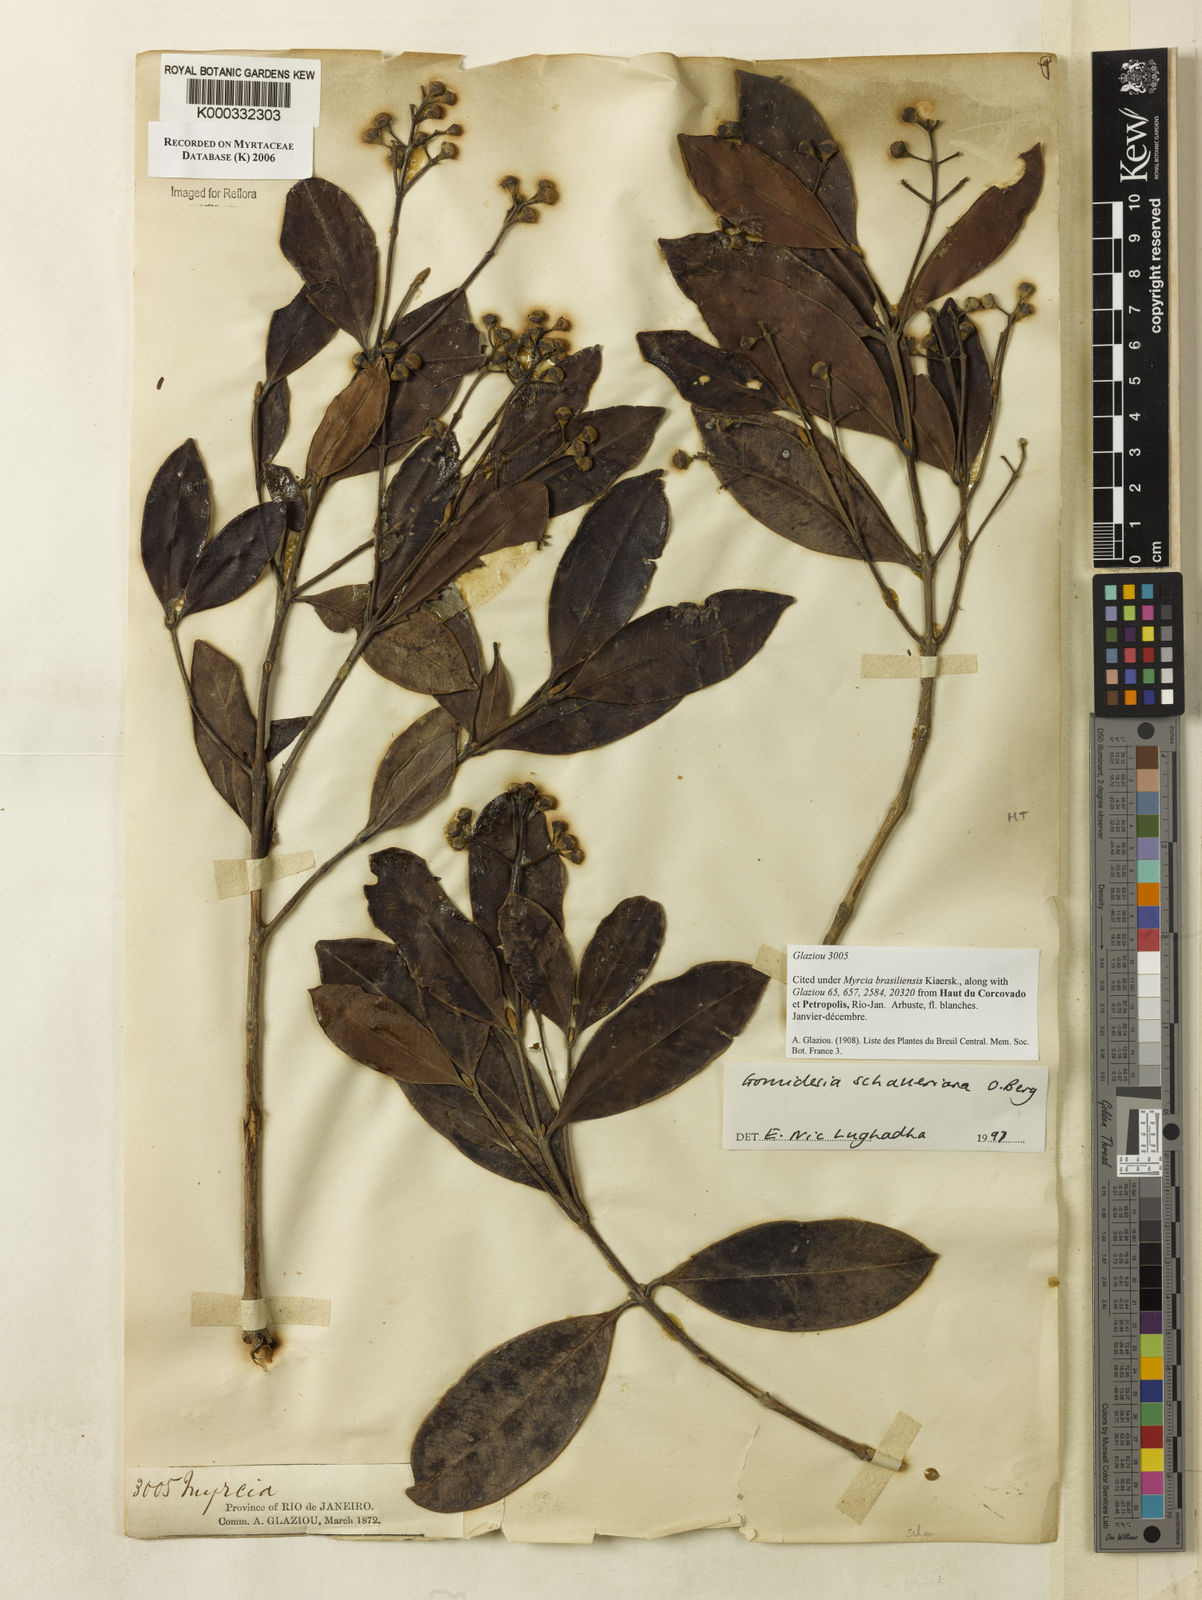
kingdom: Plantae
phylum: Tracheophyta
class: Magnoliopsida
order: Myrtales
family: Myrtaceae
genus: Myrcia
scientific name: Myrcia freyreissiana
